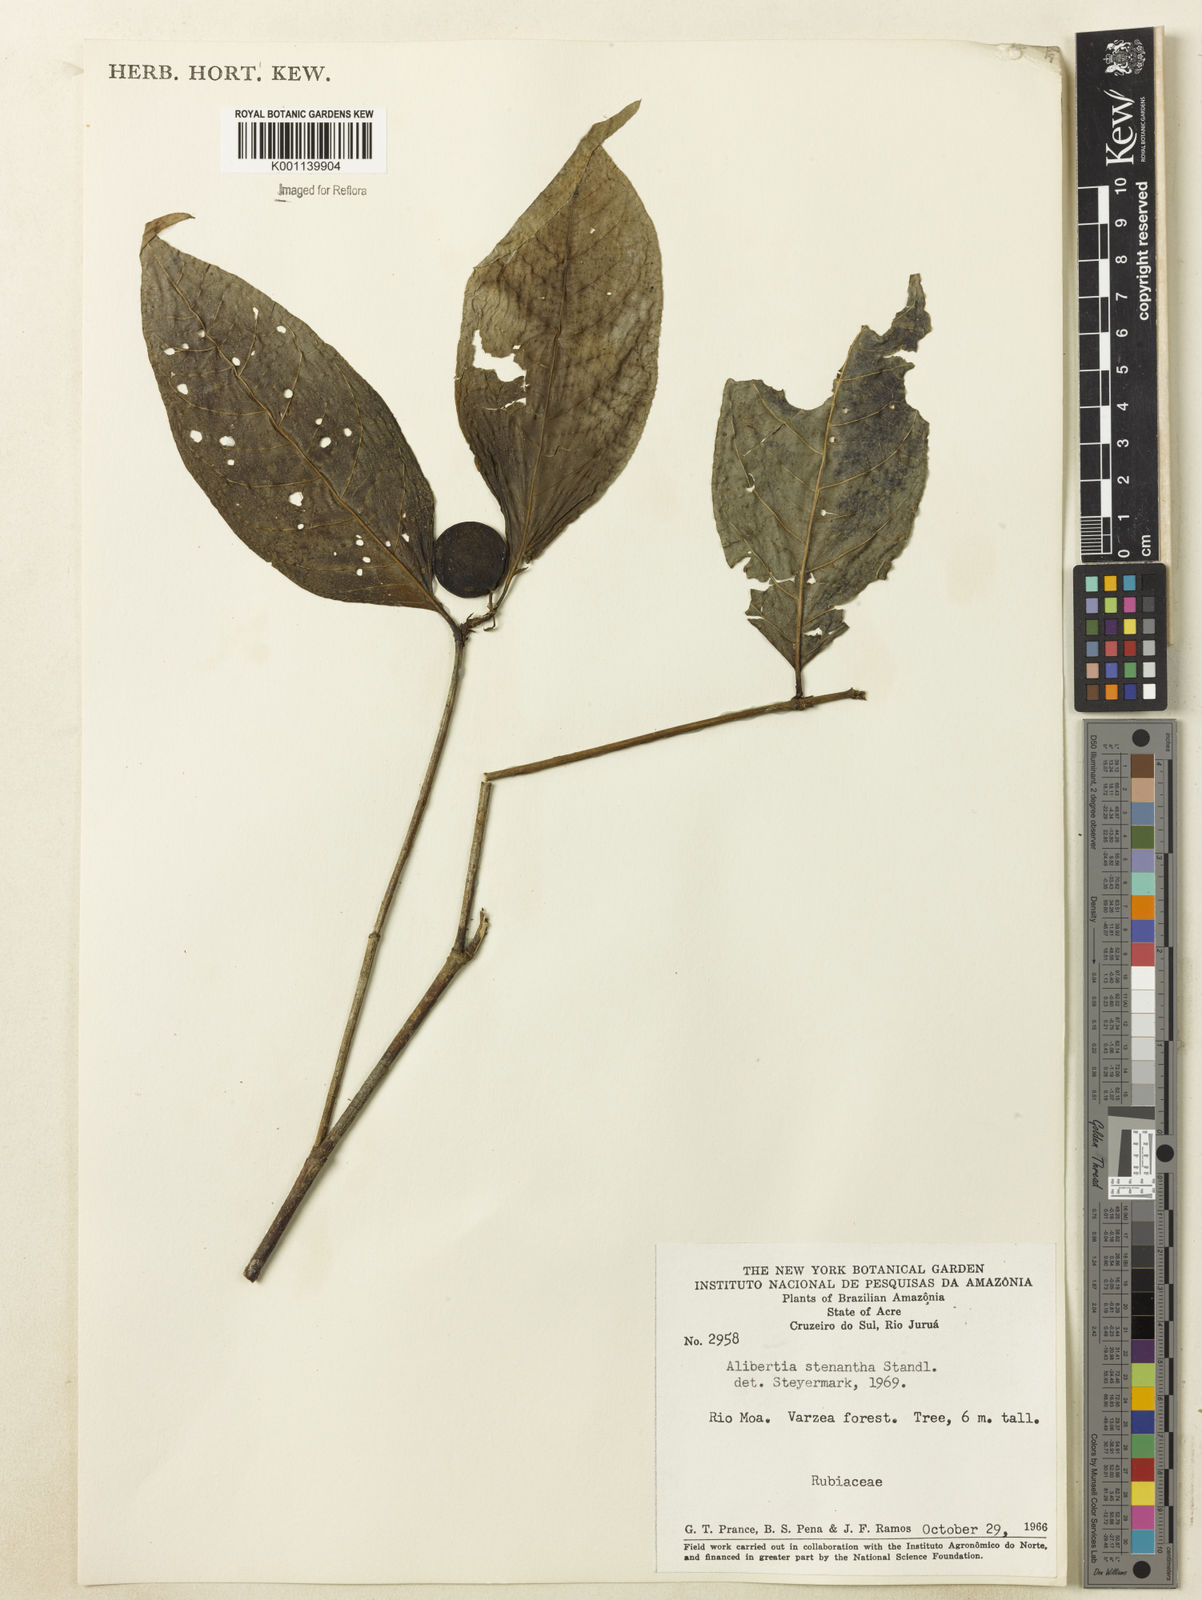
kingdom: Plantae
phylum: Tracheophyta
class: Magnoliopsida
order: Gentianales
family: Rubiaceae
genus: Alibertia
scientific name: Alibertia bertierifolia
